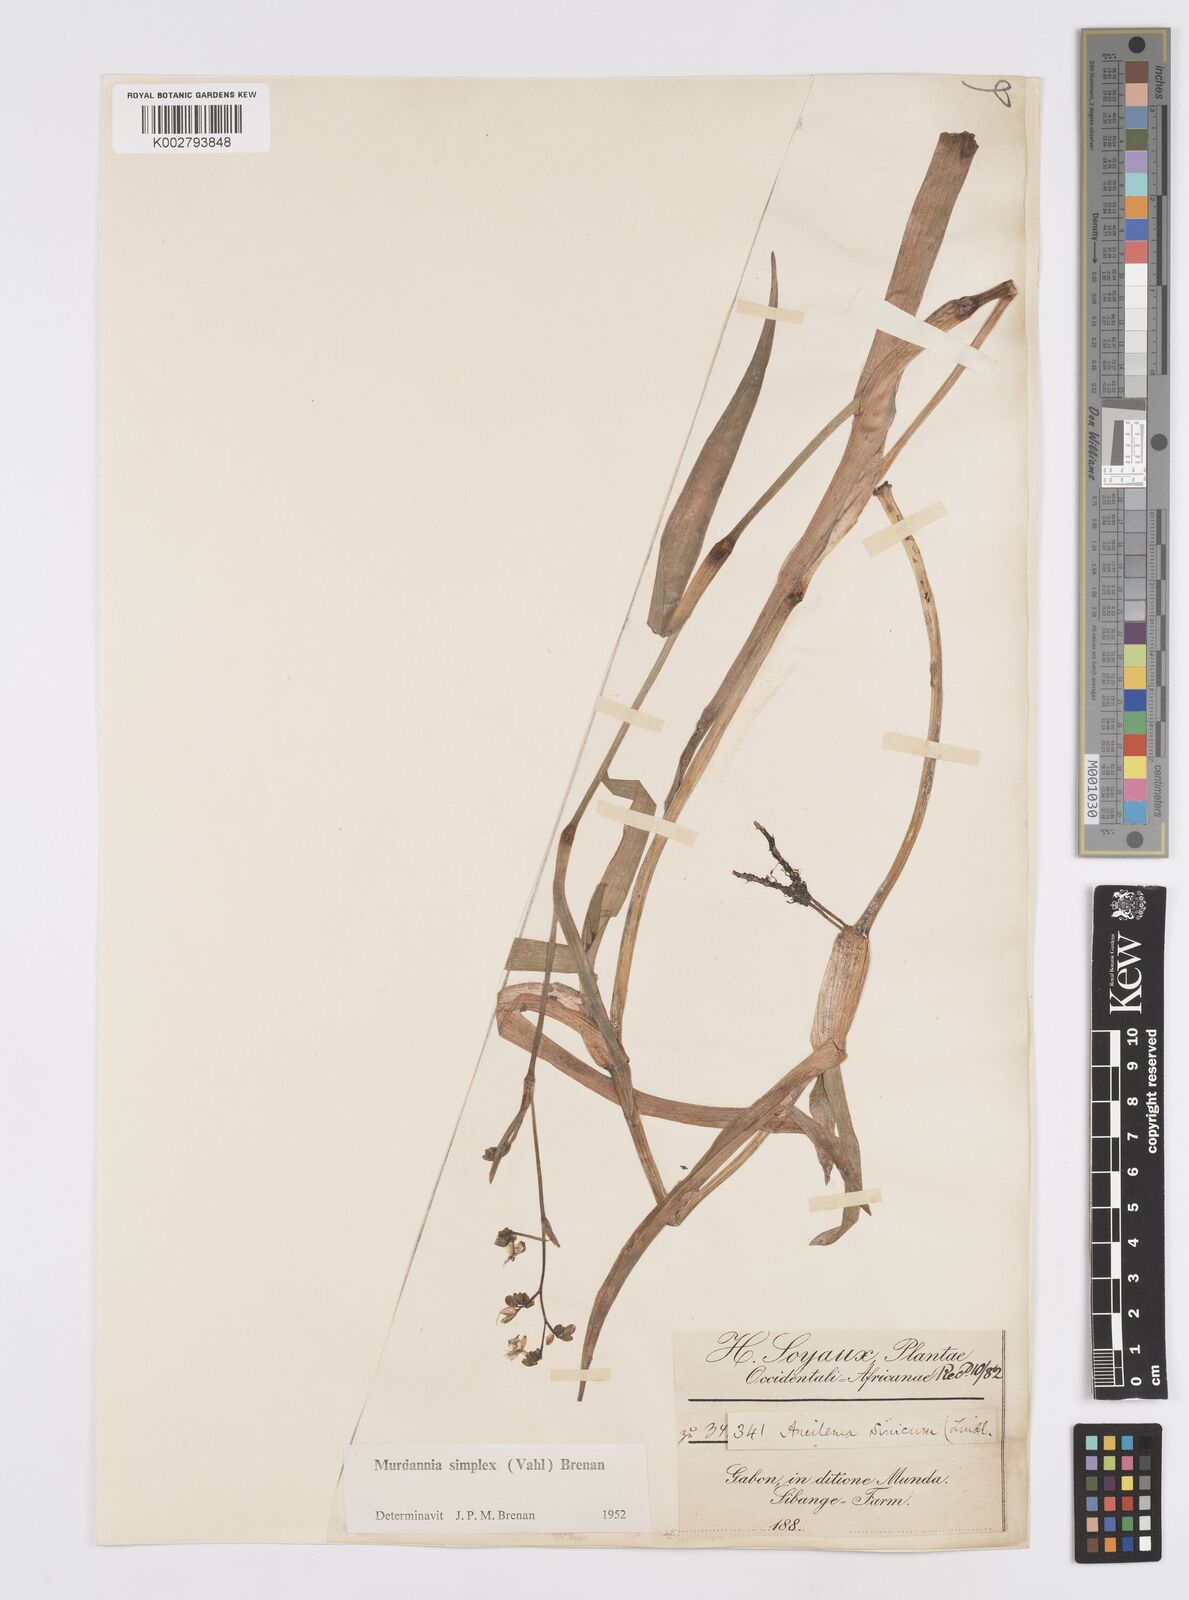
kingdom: Plantae
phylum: Tracheophyta
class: Liliopsida
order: Commelinales
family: Commelinaceae
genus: Murdannia
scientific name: Murdannia simplex
